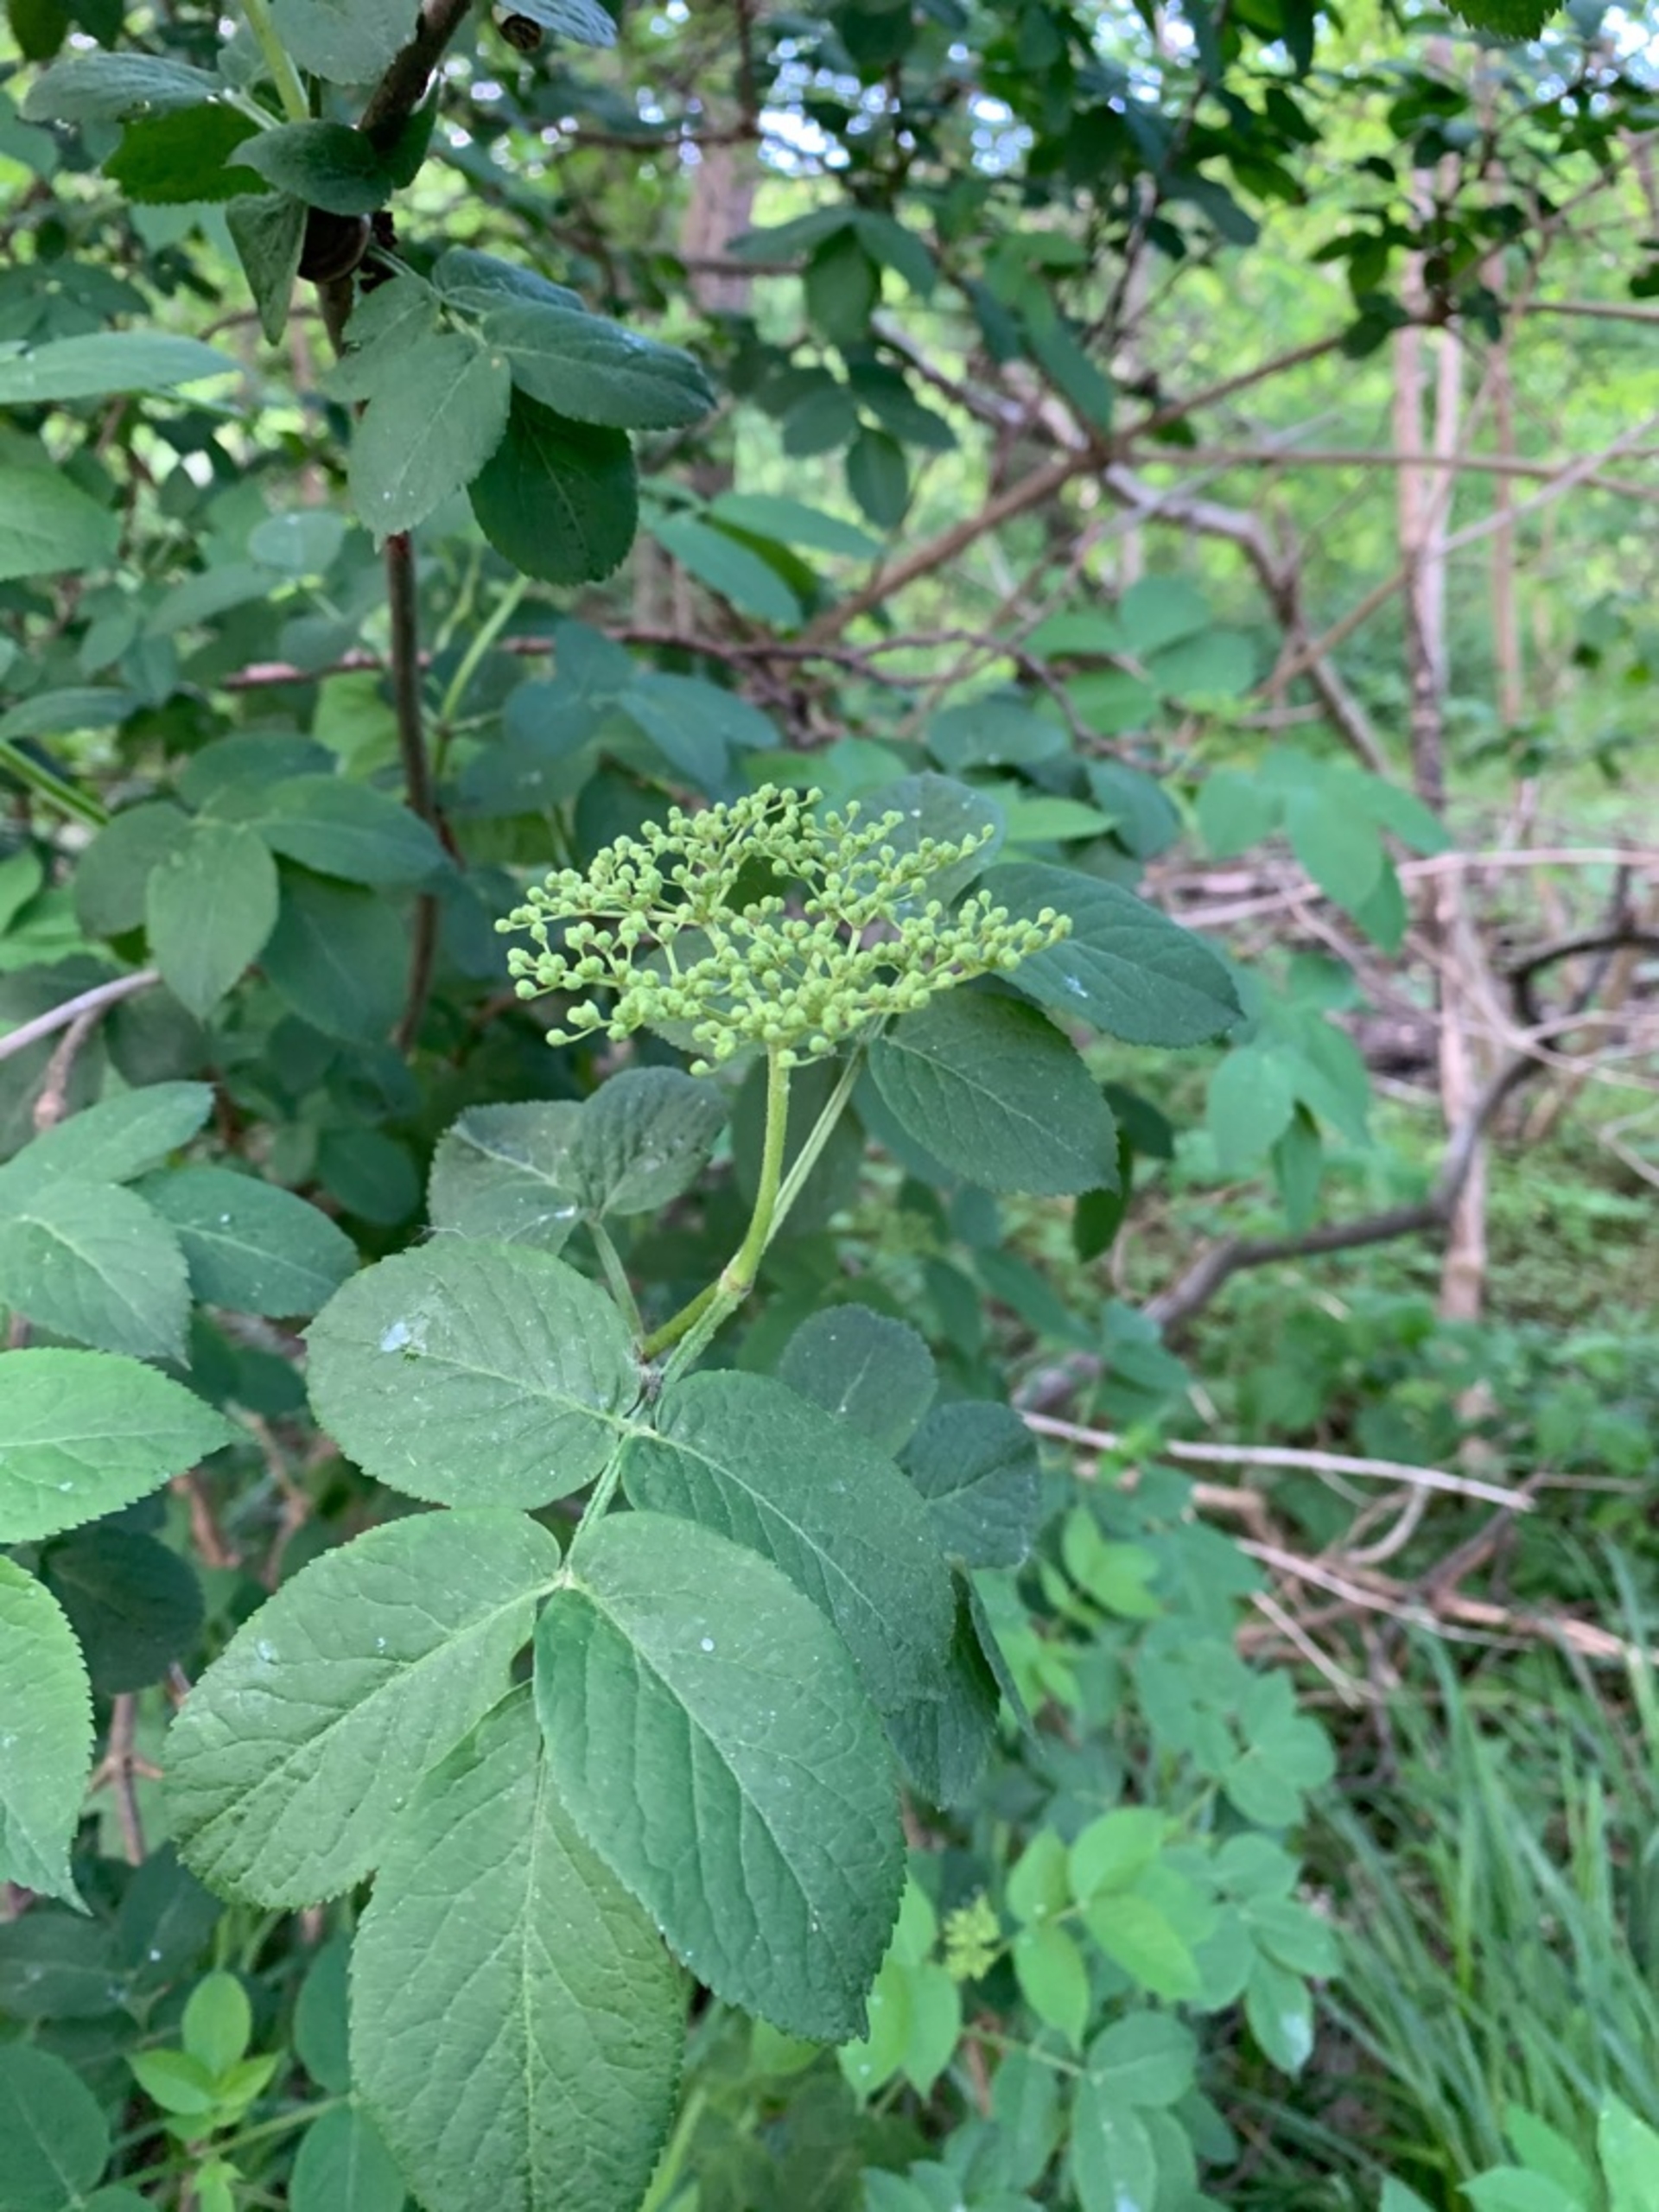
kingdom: Plantae
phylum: Tracheophyta
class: Magnoliopsida
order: Dipsacales
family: Viburnaceae
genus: Sambucus
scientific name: Sambucus nigra
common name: Almindelig hyld
